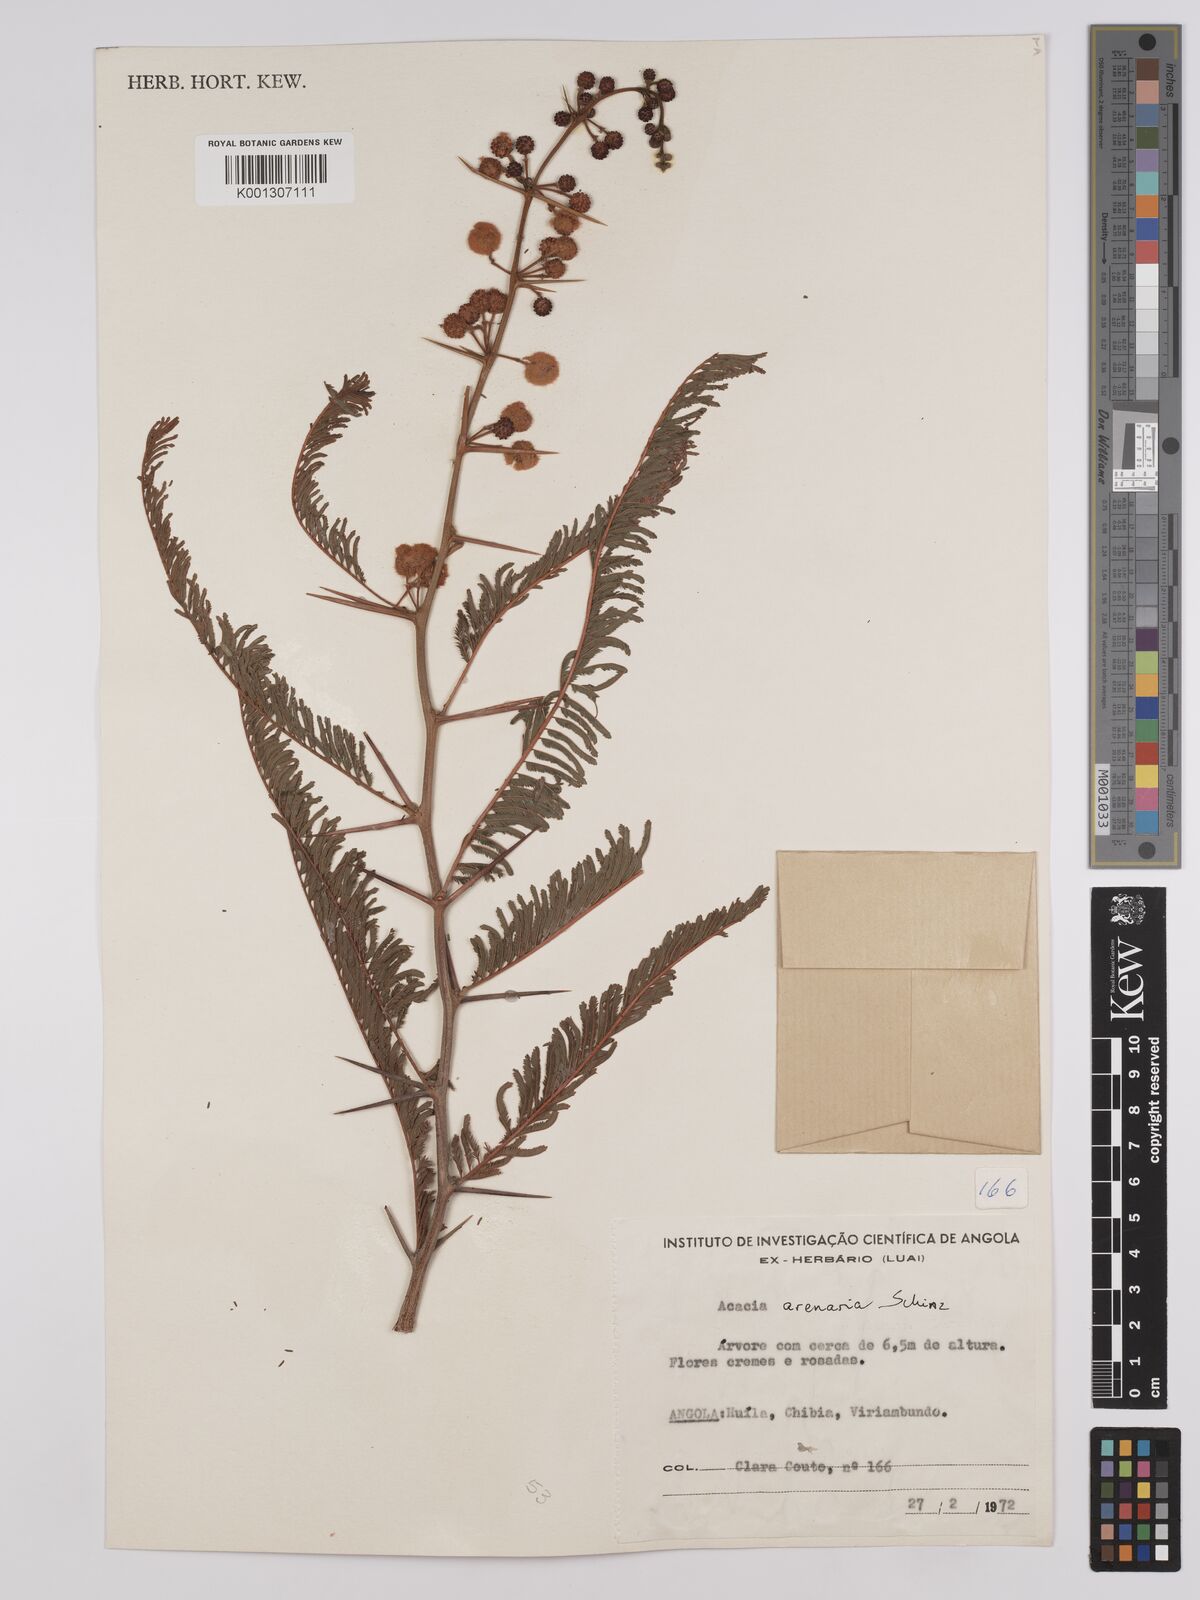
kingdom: Plantae
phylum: Tracheophyta
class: Magnoliopsida
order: Fabales
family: Fabaceae
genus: Vachellia
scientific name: Vachellia arenaria
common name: Sand acacia
